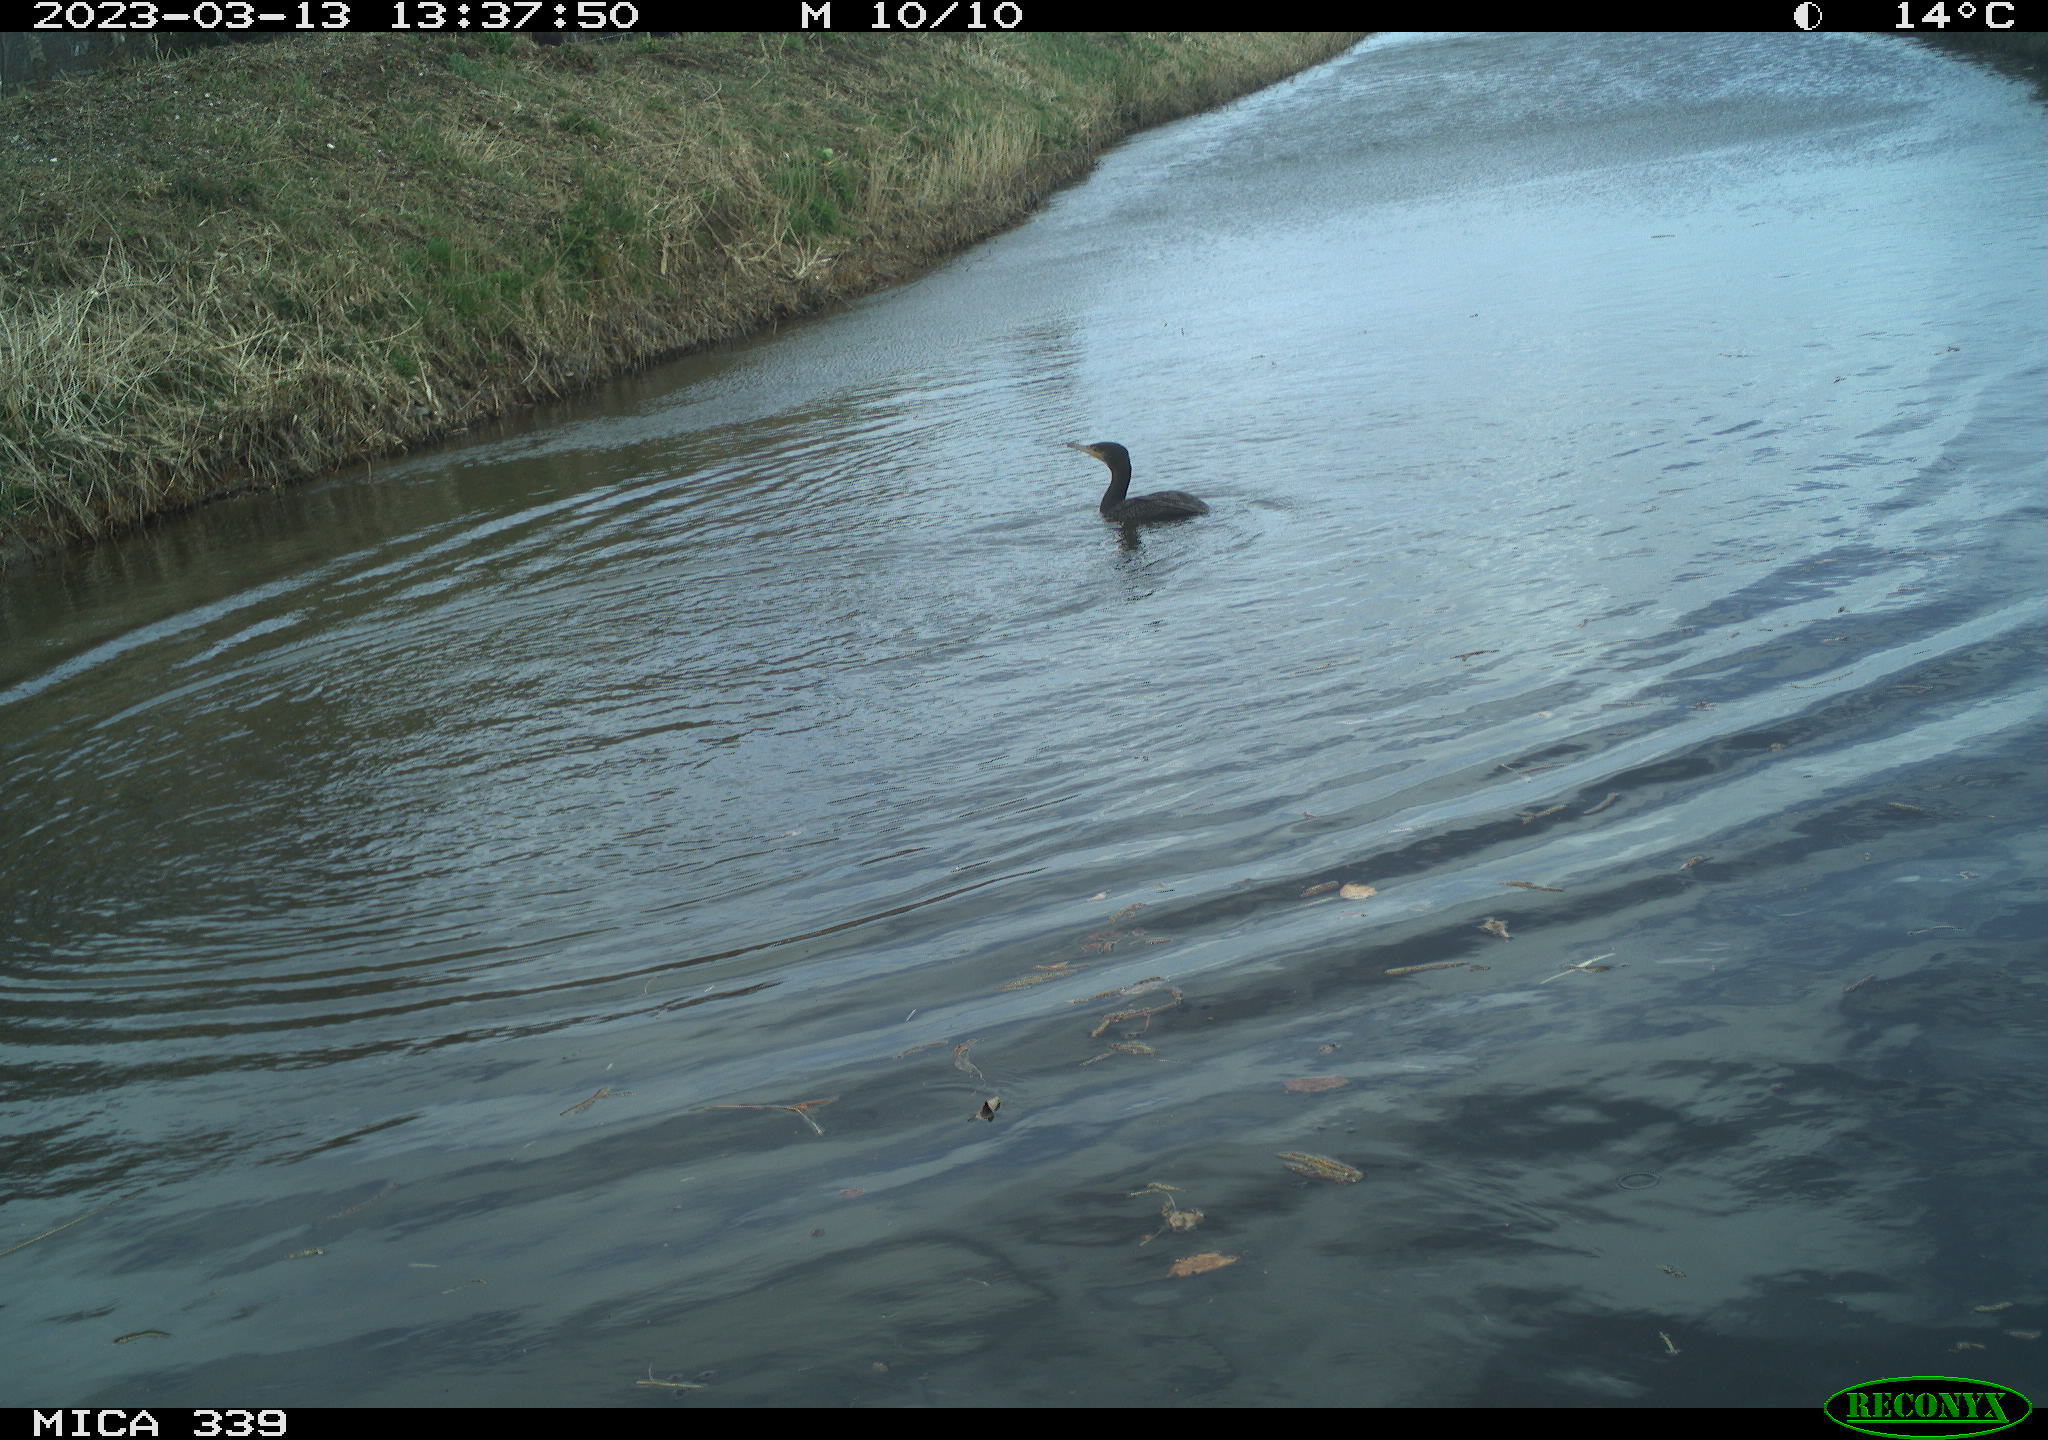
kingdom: Animalia
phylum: Chordata
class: Aves
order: Suliformes
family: Phalacrocoracidae
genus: Phalacrocorax
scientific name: Phalacrocorax carbo
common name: Great cormorant
